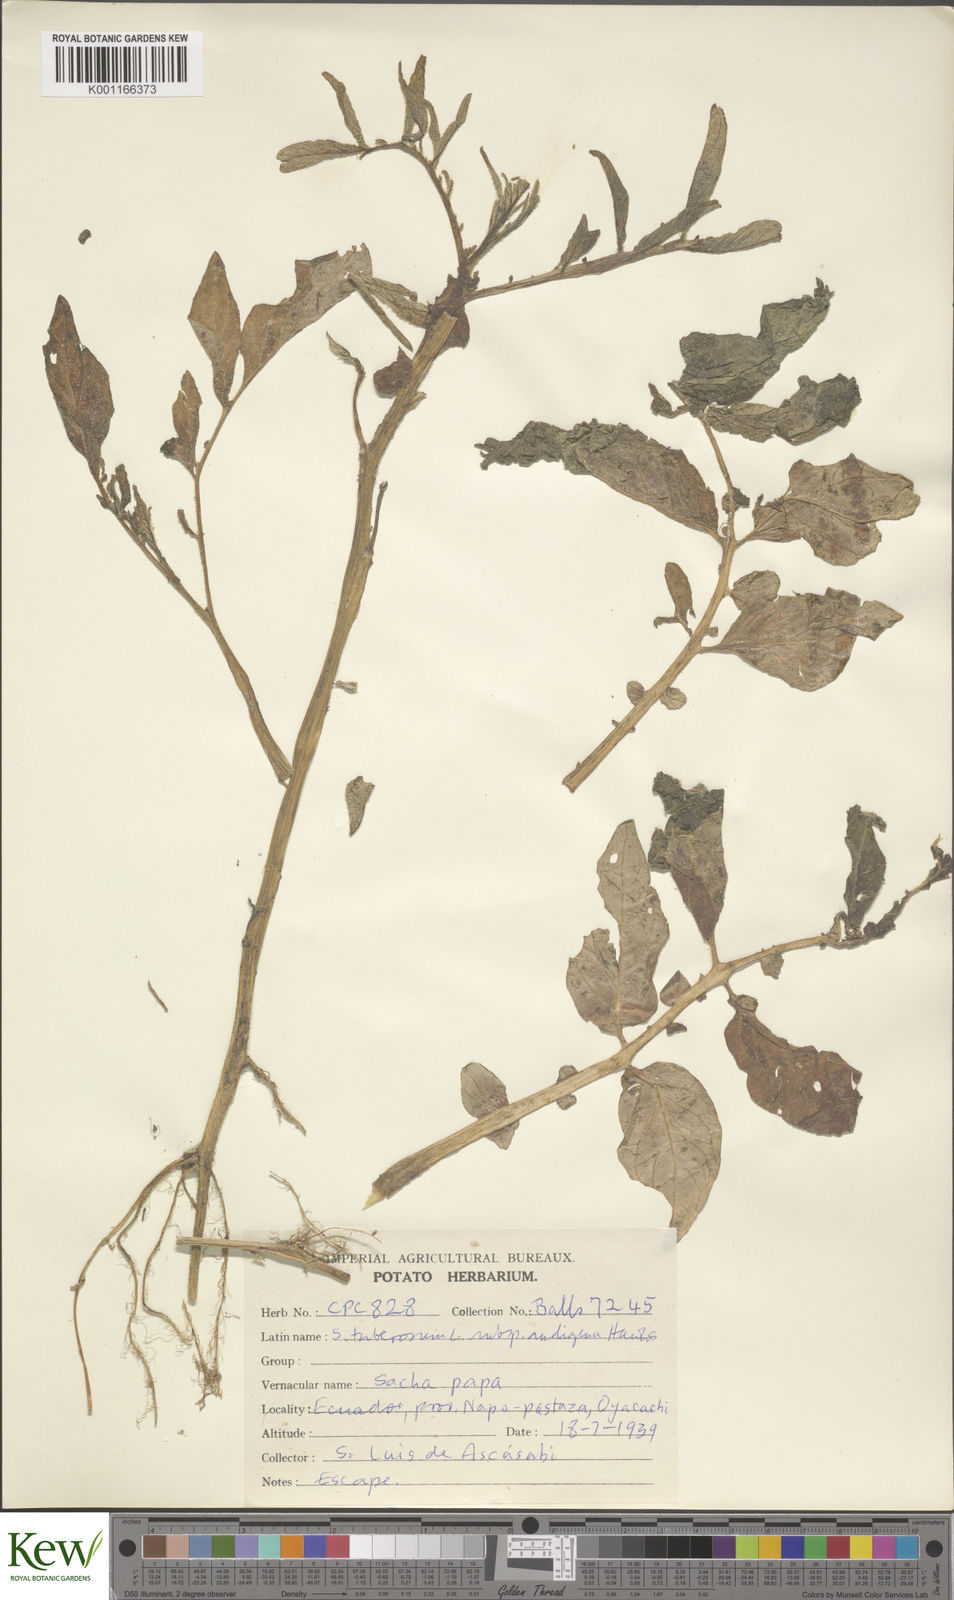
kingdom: Plantae
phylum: Tracheophyta
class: Magnoliopsida
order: Solanales
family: Solanaceae
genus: Solanum
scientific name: Solanum tuberosum
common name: Potato
